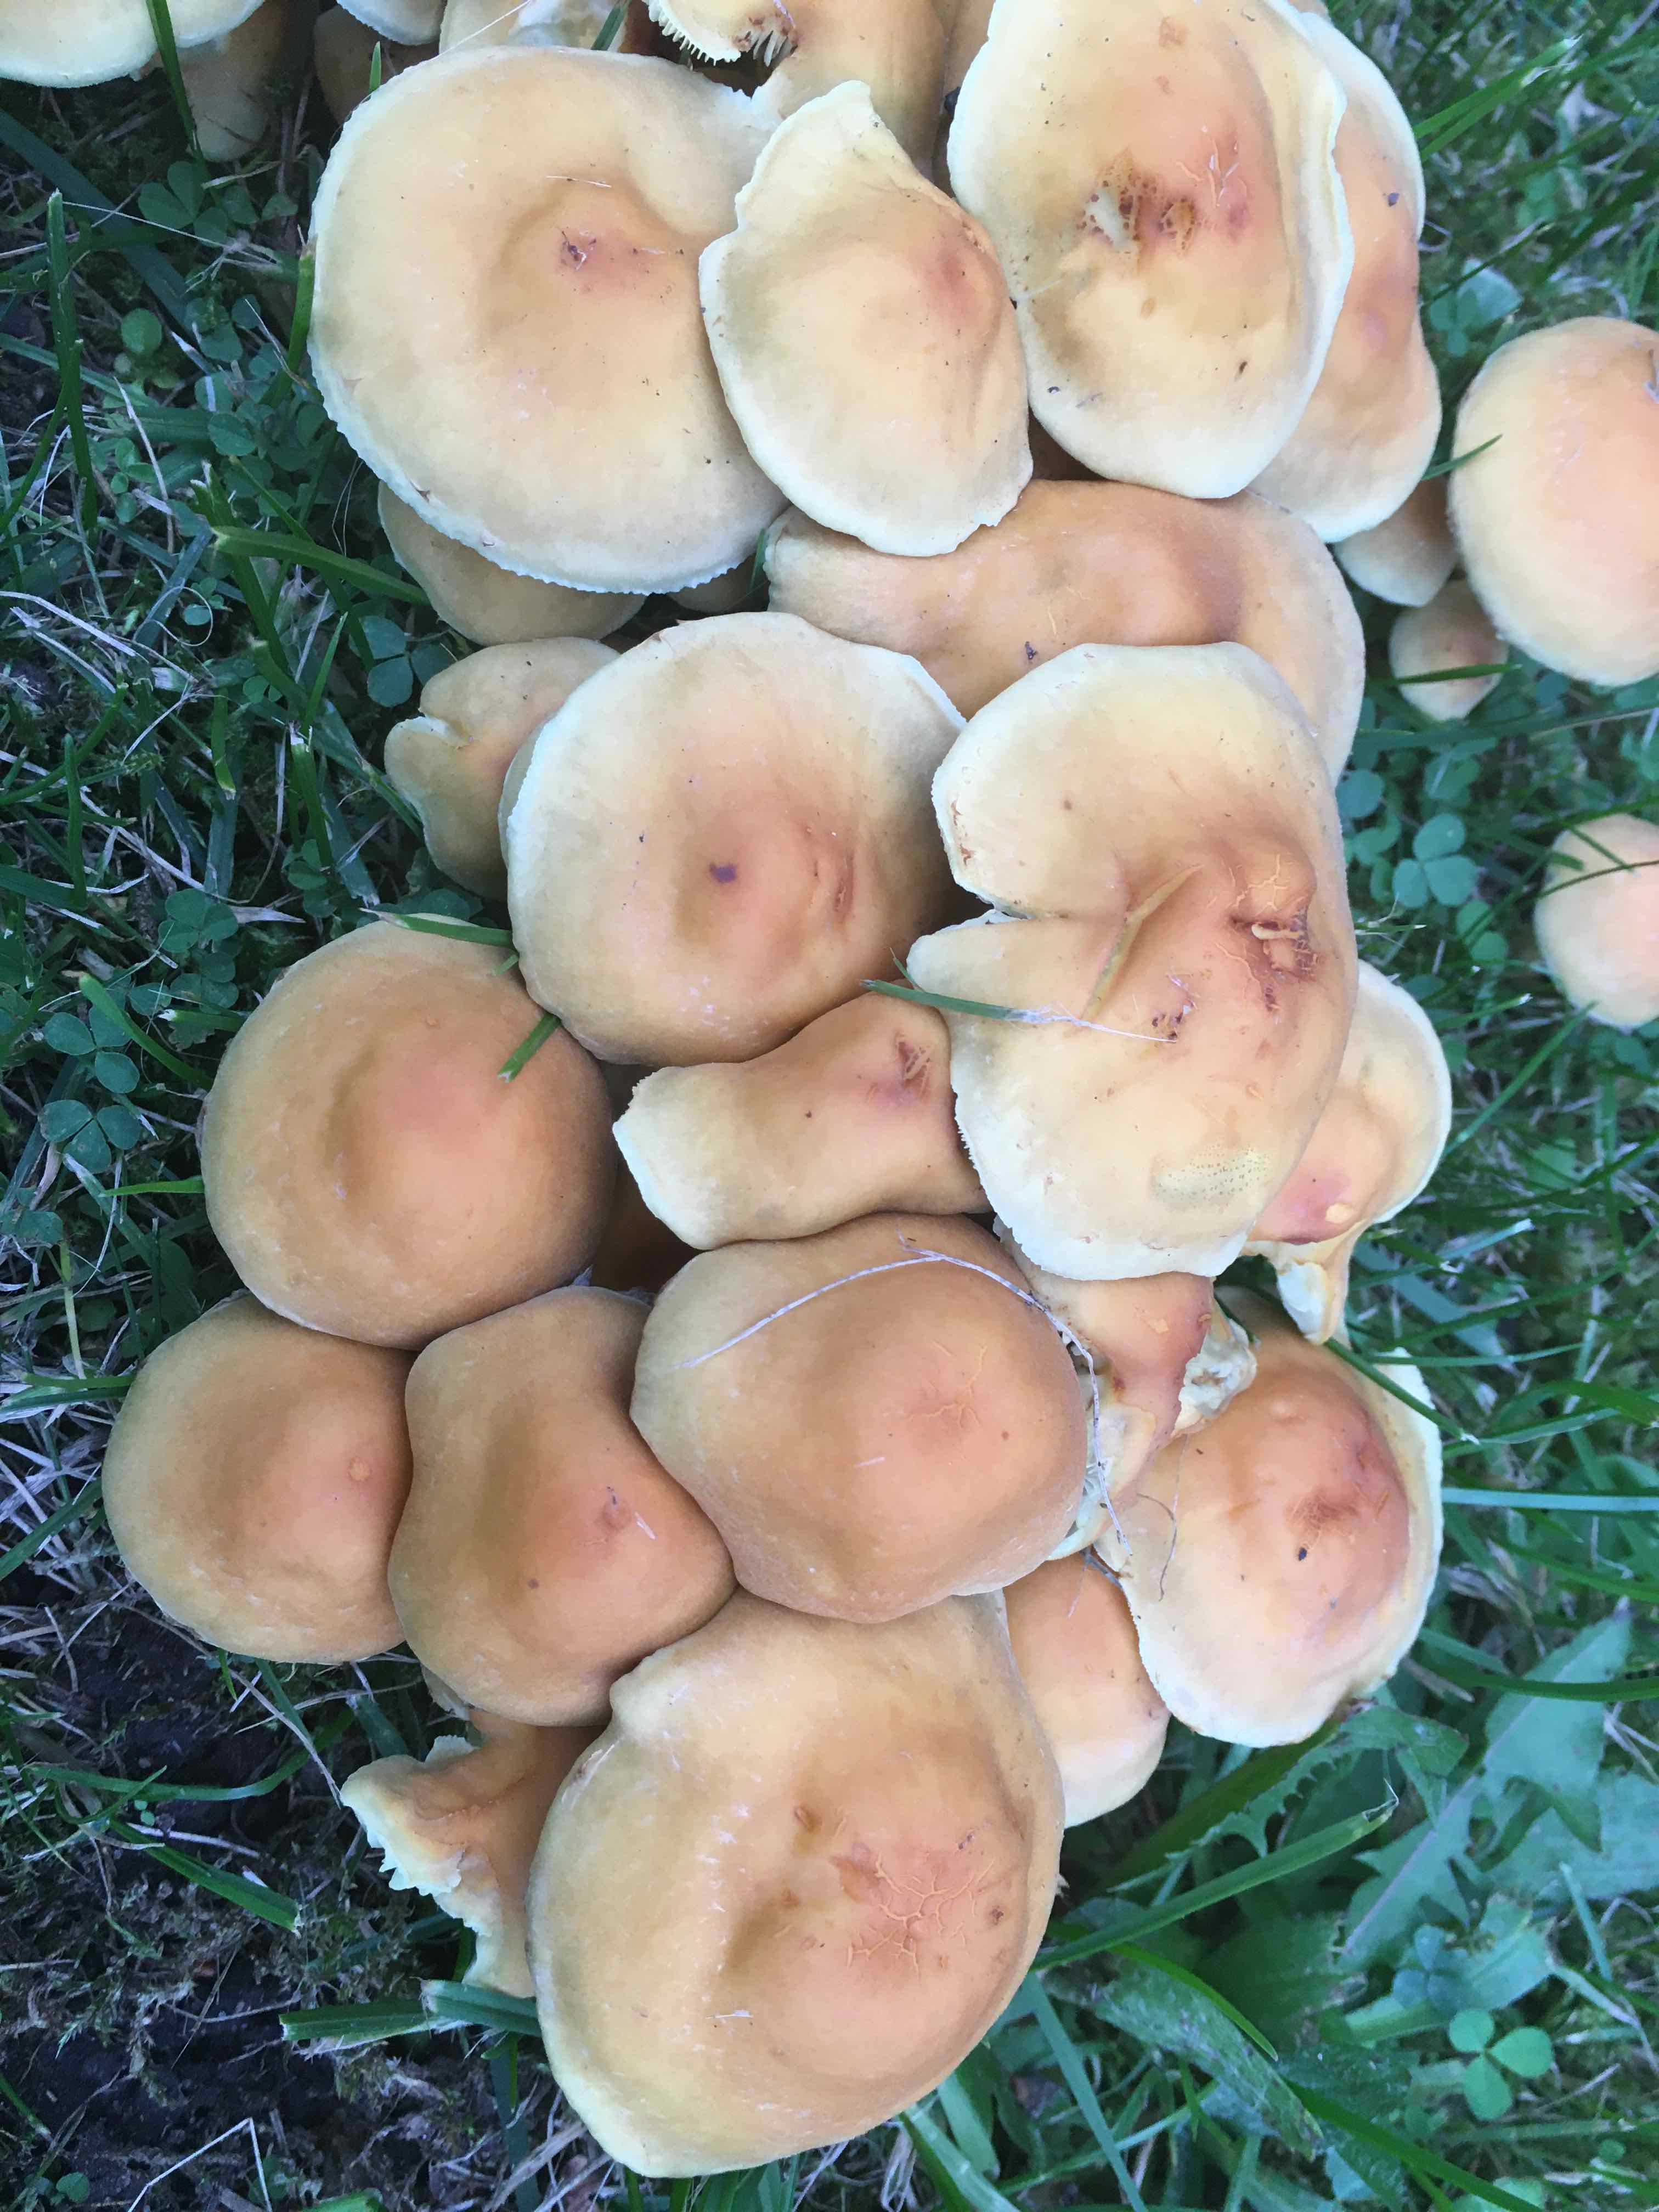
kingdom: Fungi
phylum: Basidiomycota
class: Agaricomycetes
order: Agaricales
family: Strophariaceae
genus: Hypholoma
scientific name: Hypholoma fasciculare
